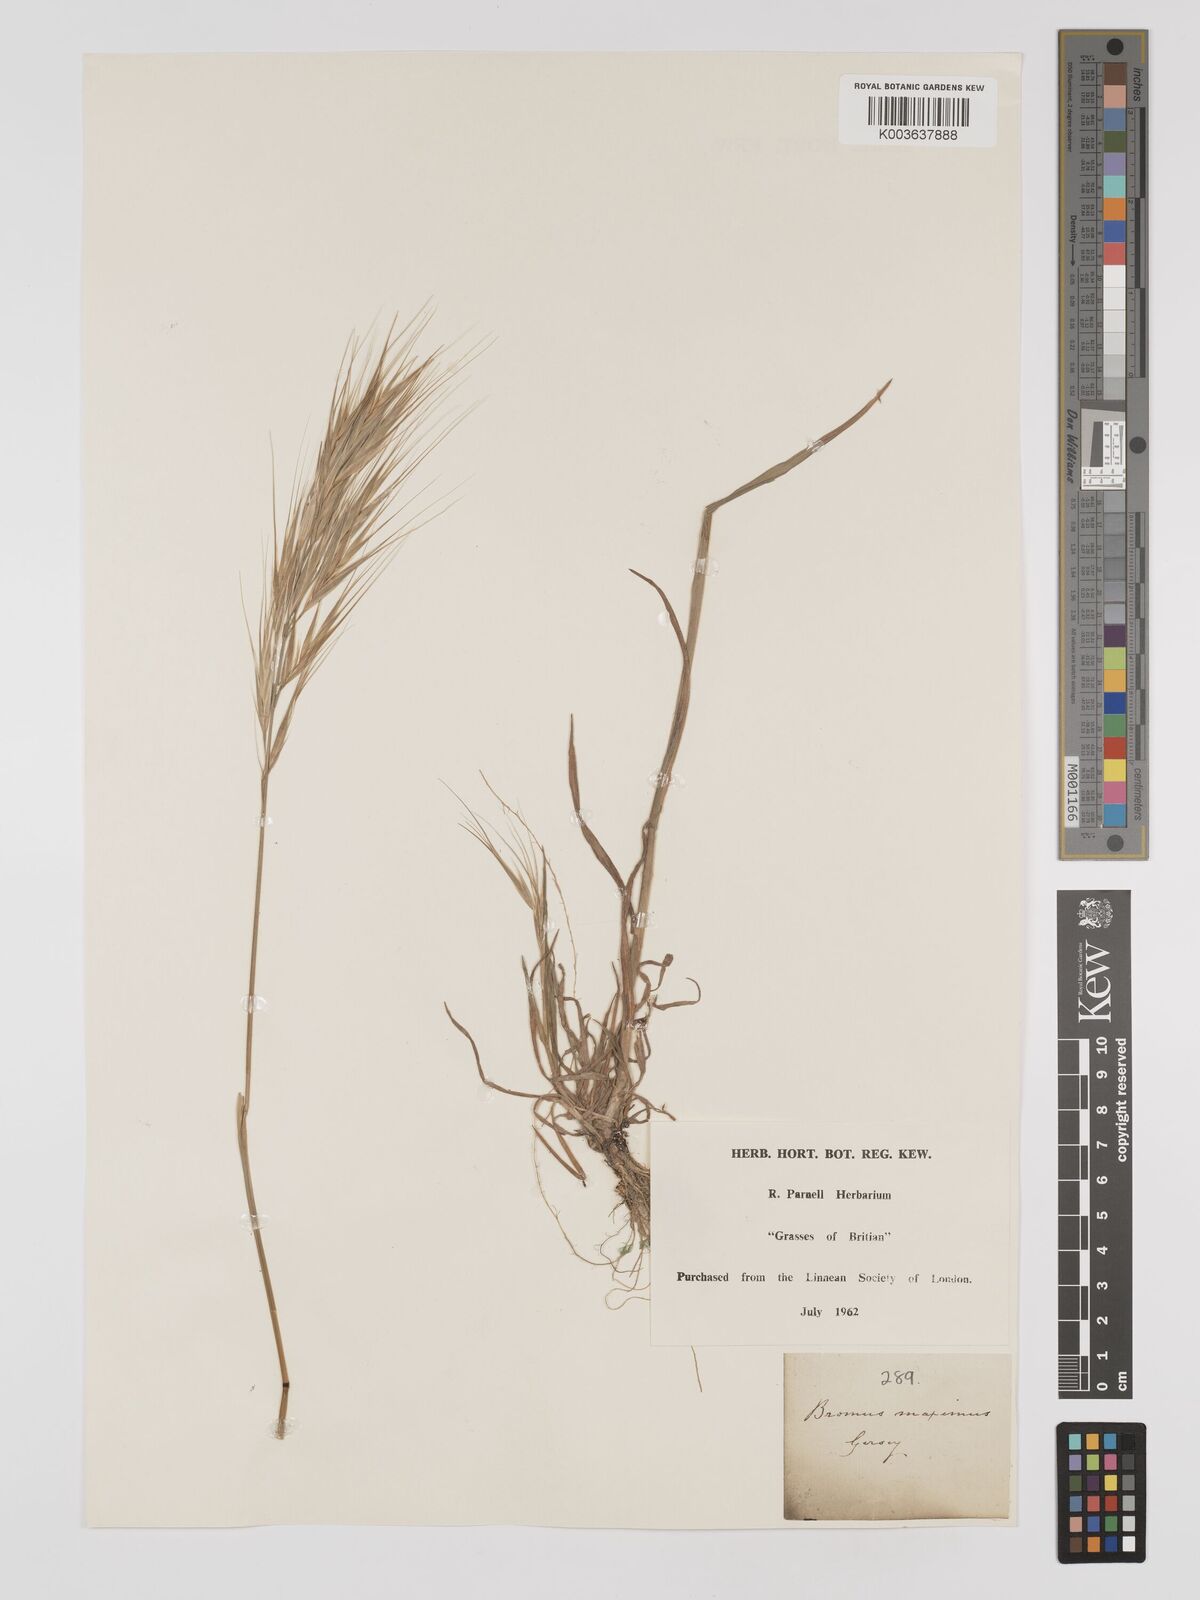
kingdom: Plantae
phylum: Tracheophyta
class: Liliopsida
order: Poales
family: Poaceae
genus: Bromus
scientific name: Bromus
